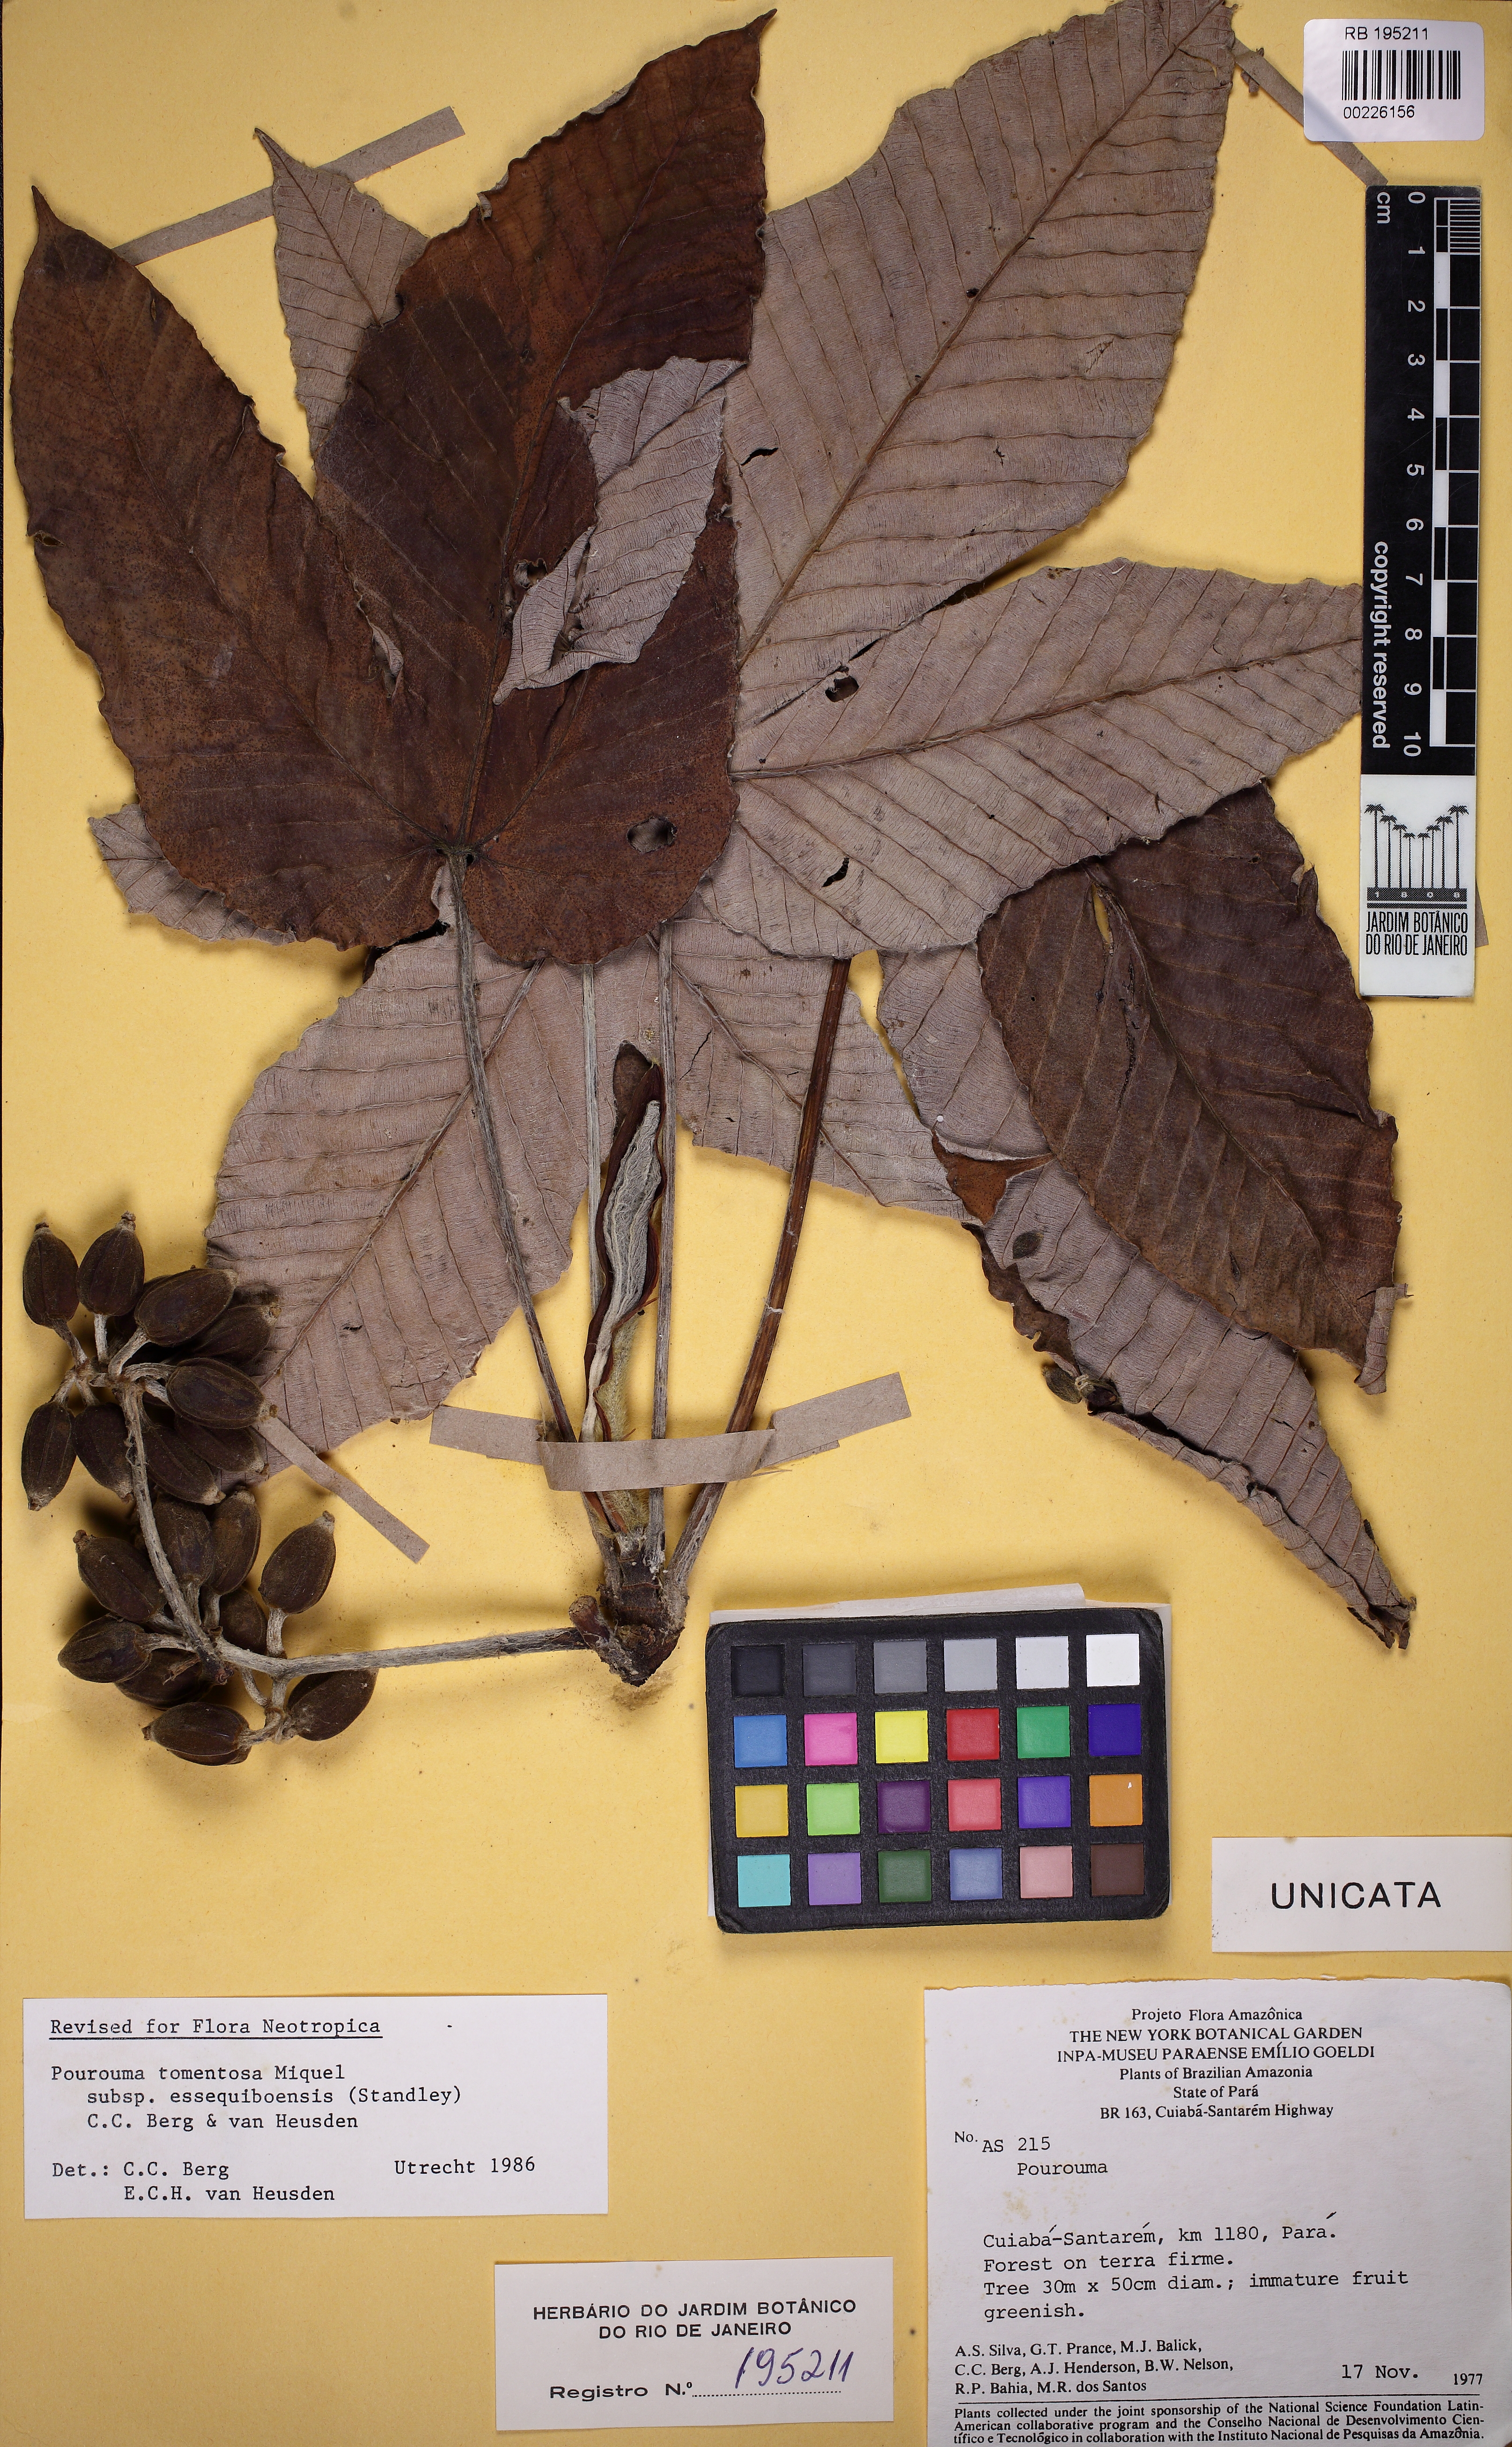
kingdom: Plantae
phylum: Tracheophyta
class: Magnoliopsida
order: Rosales
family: Urticaceae
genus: Pourouma
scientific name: Pourouma tomentosa
